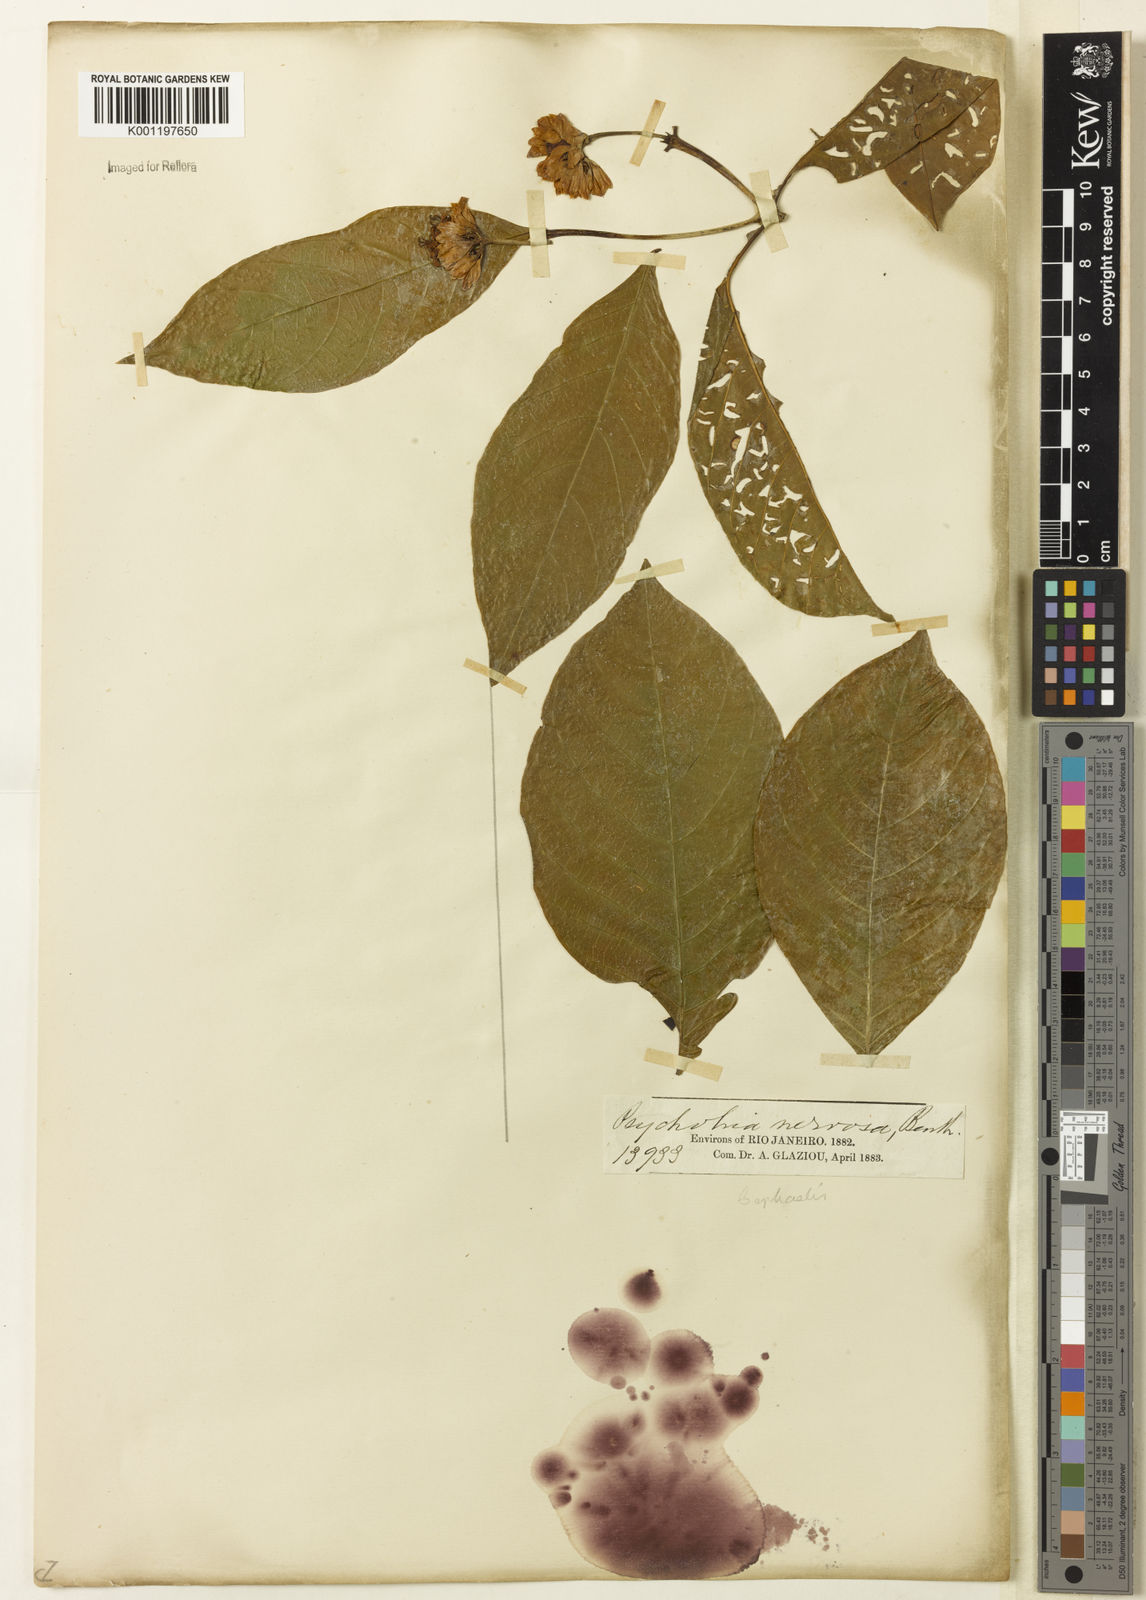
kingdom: Plantae
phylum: Tracheophyta
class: Magnoliopsida
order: Gentianales
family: Rubiaceae
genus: Palicourea
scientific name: Palicourea justiciifolia
